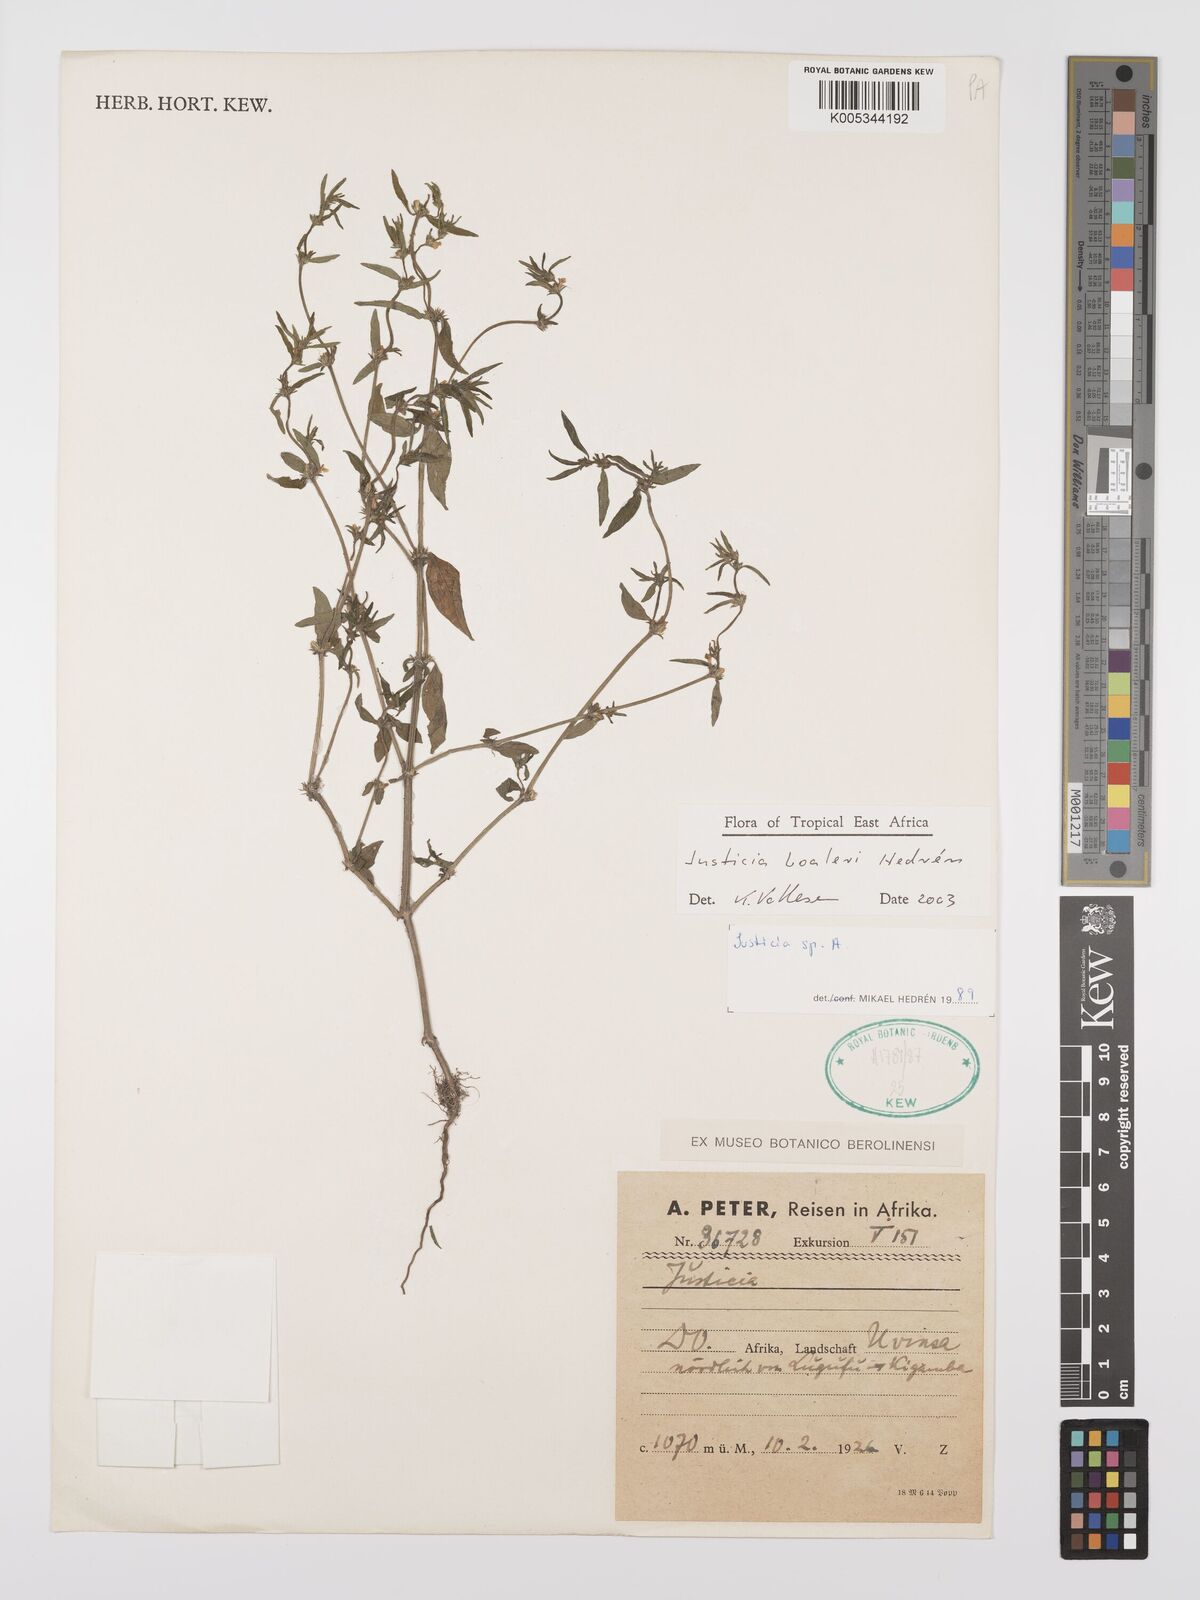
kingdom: Plantae
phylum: Tracheophyta
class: Magnoliopsida
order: Lamiales
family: Acanthaceae
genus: Justicia
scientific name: Justicia boaleri
